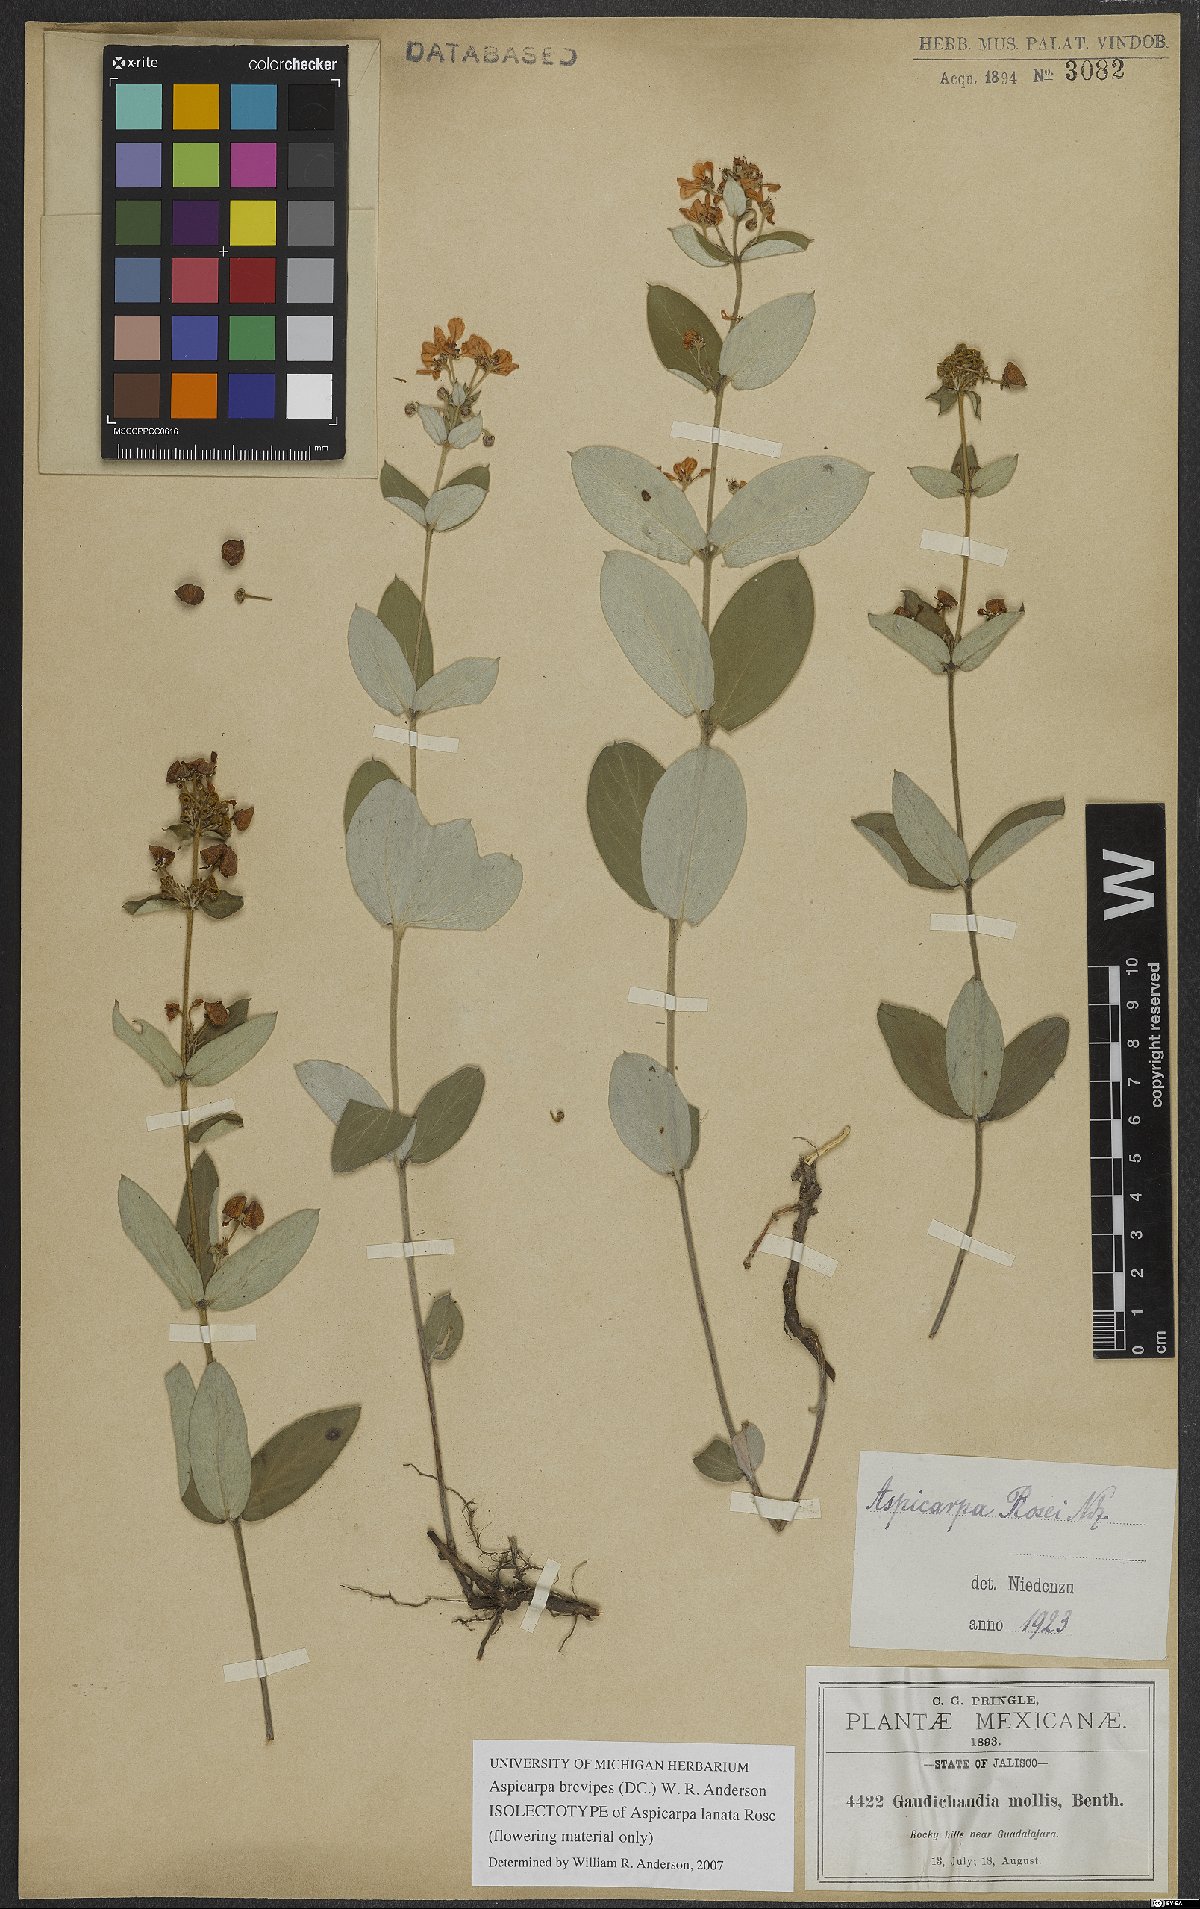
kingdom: Plantae
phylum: Tracheophyta
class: Magnoliopsida
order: Malpighiales
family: Malpighiaceae
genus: Aspicarpa
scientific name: Aspicarpa brevipes
